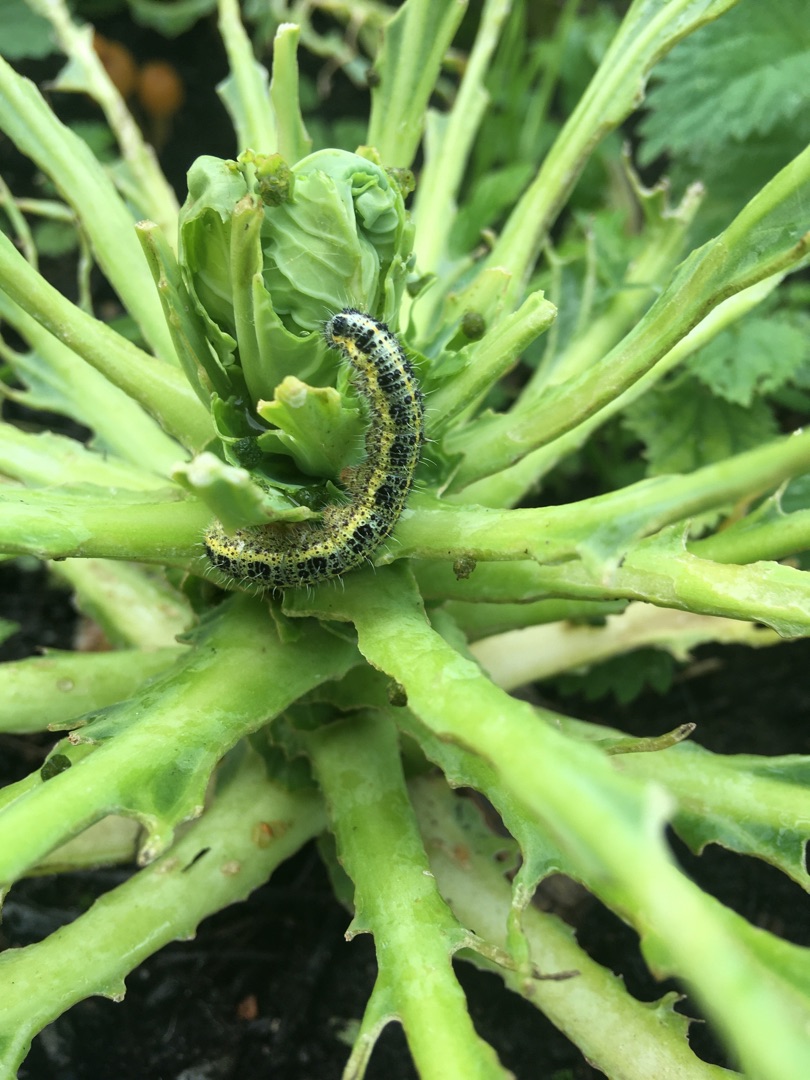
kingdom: Animalia
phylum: Arthropoda
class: Insecta
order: Lepidoptera
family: Pieridae
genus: Pieris
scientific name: Pieris brassicae
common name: Stor kålsommerfugl
